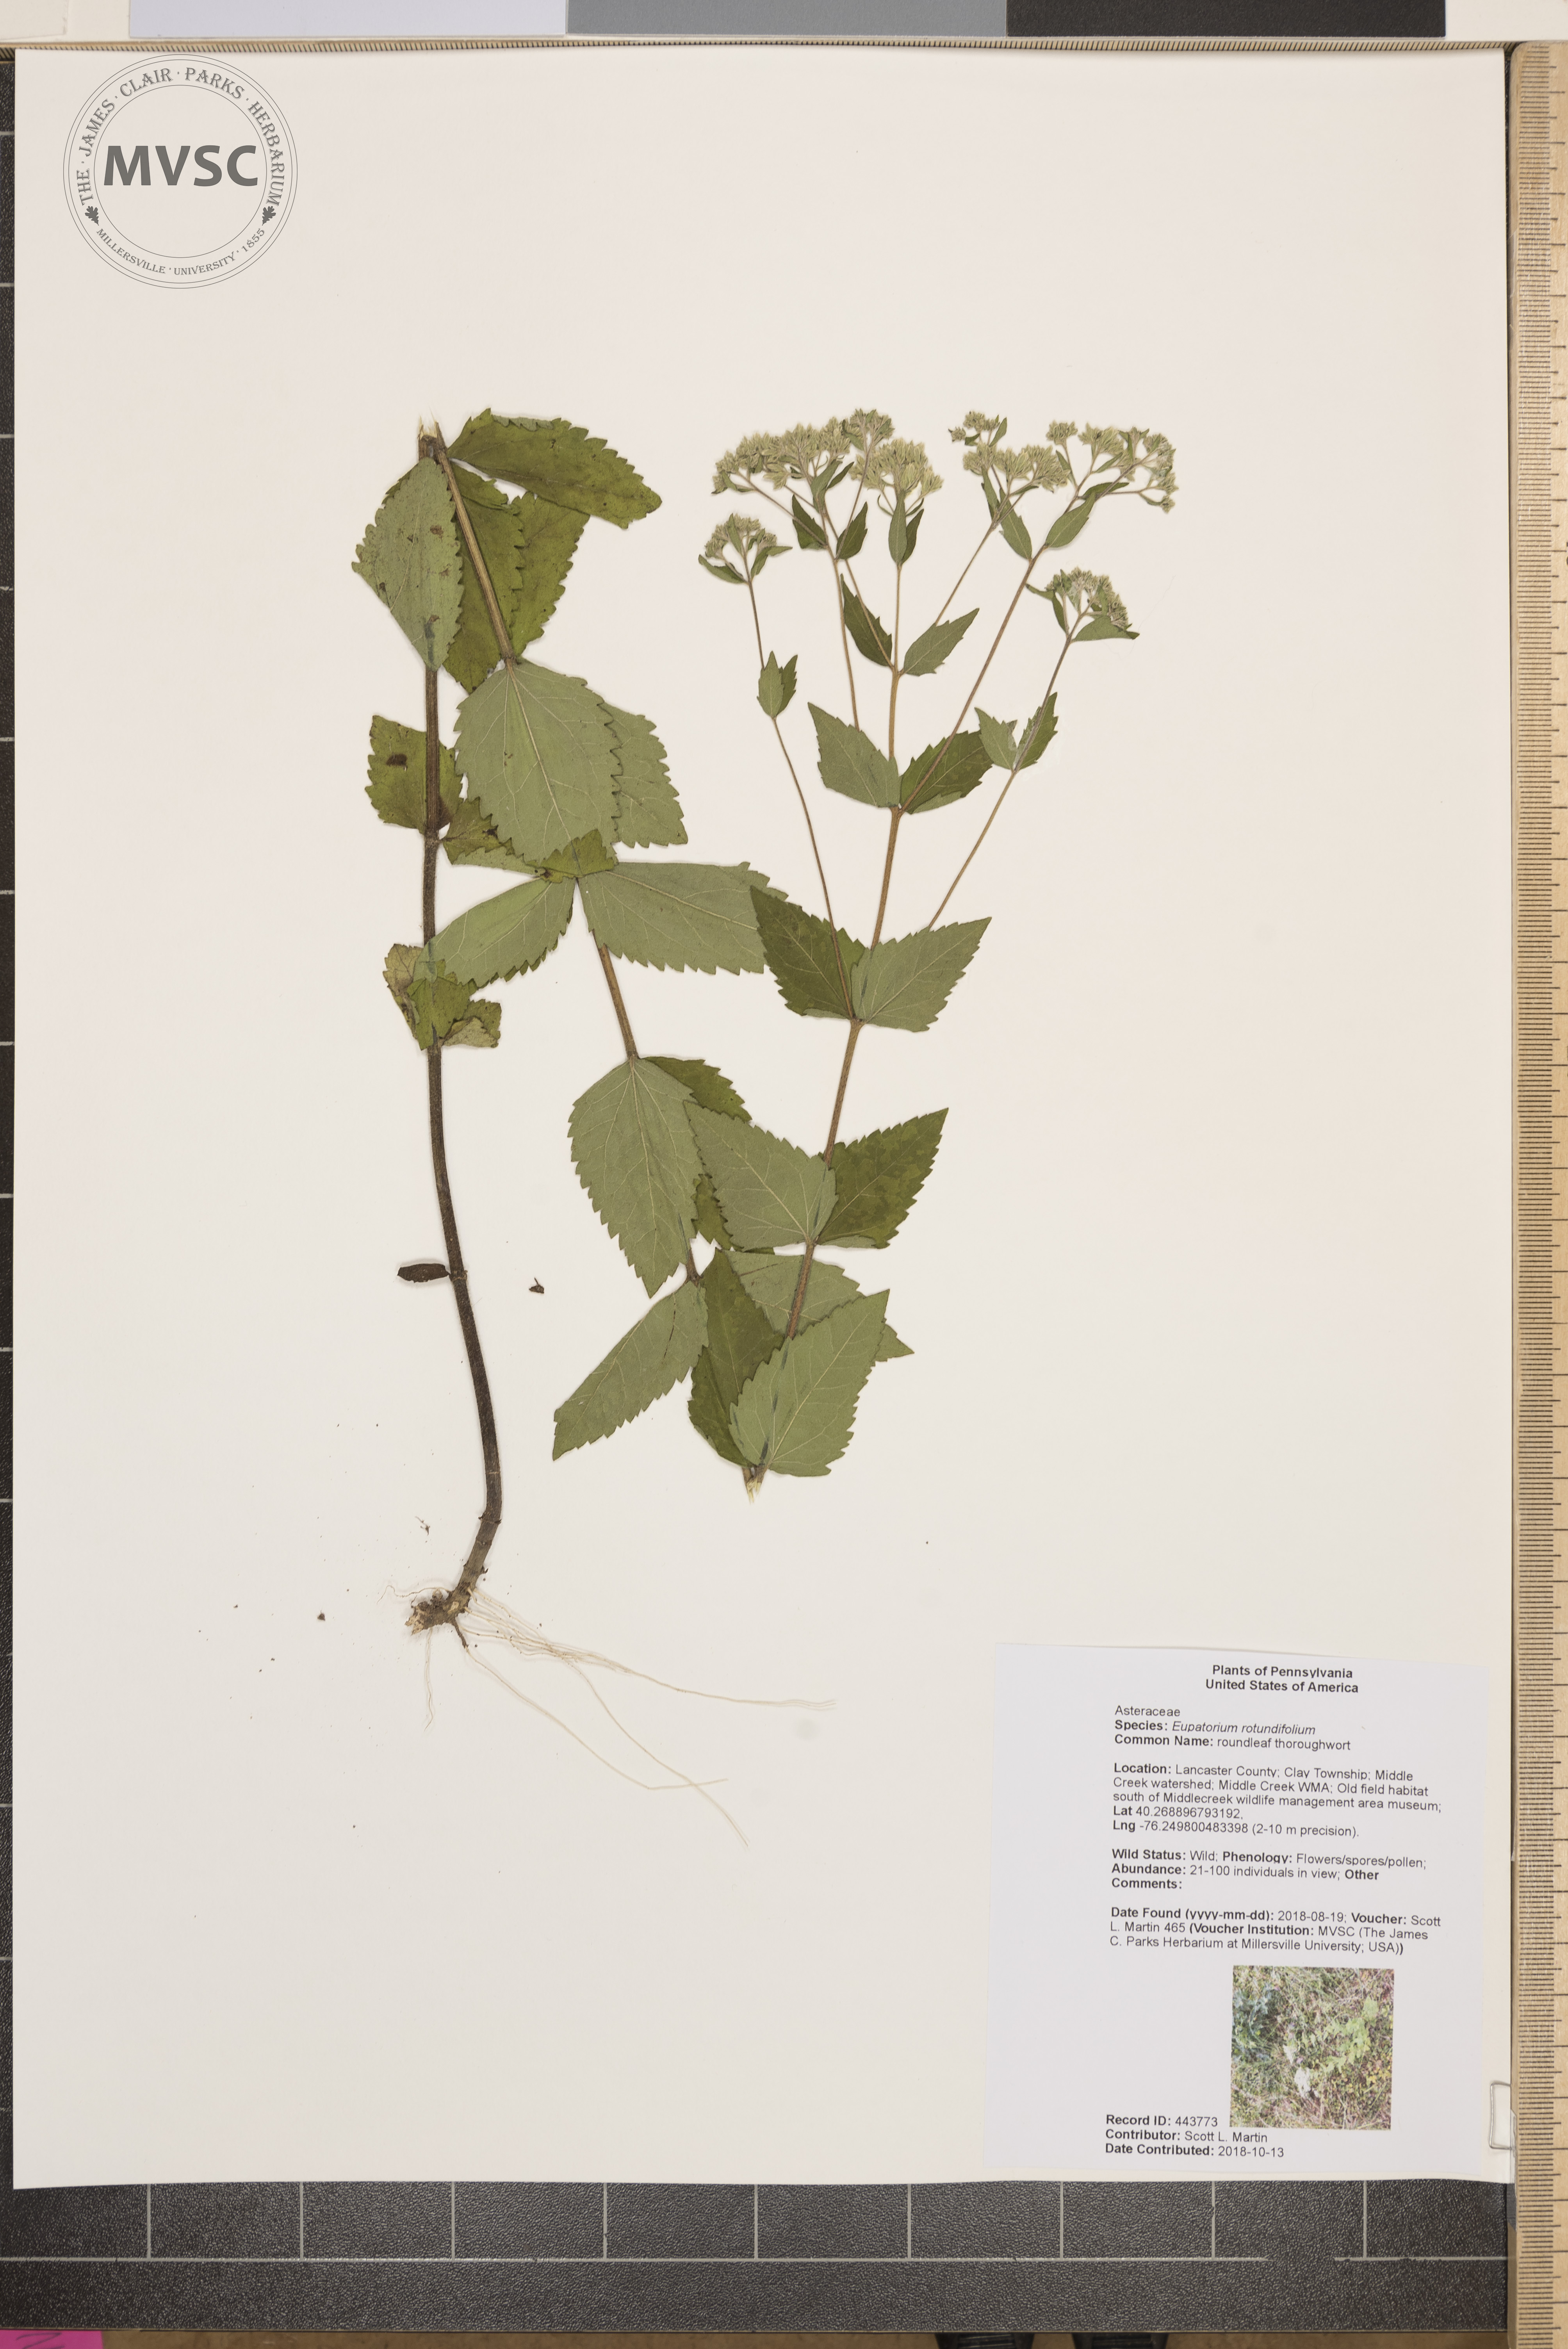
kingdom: Plantae
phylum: Tracheophyta
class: Magnoliopsida
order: Asterales
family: Asteraceae
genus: Eupatorium
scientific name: Eupatorium rotundifolium
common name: roundleaf thoroughwort
